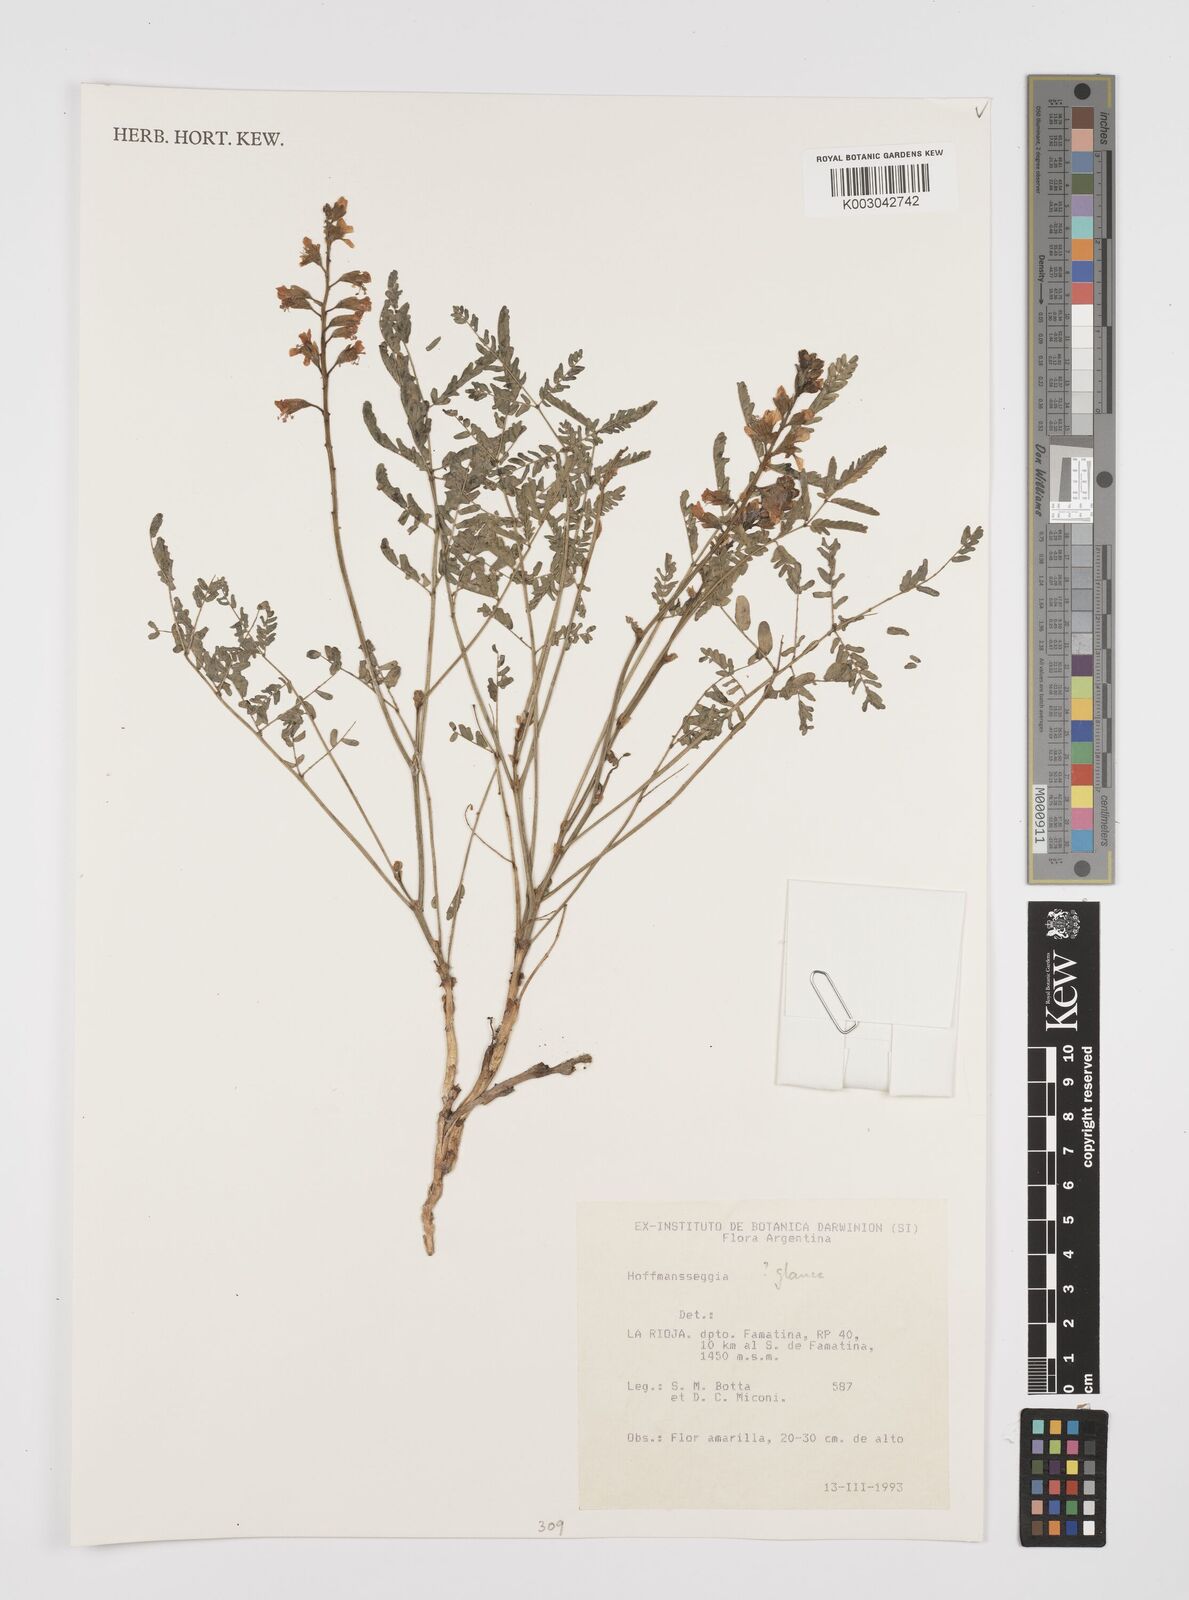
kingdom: Plantae
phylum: Tracheophyta
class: Magnoliopsida
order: Fabales
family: Fabaceae
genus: Hoffmannseggia
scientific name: Hoffmannseggia
